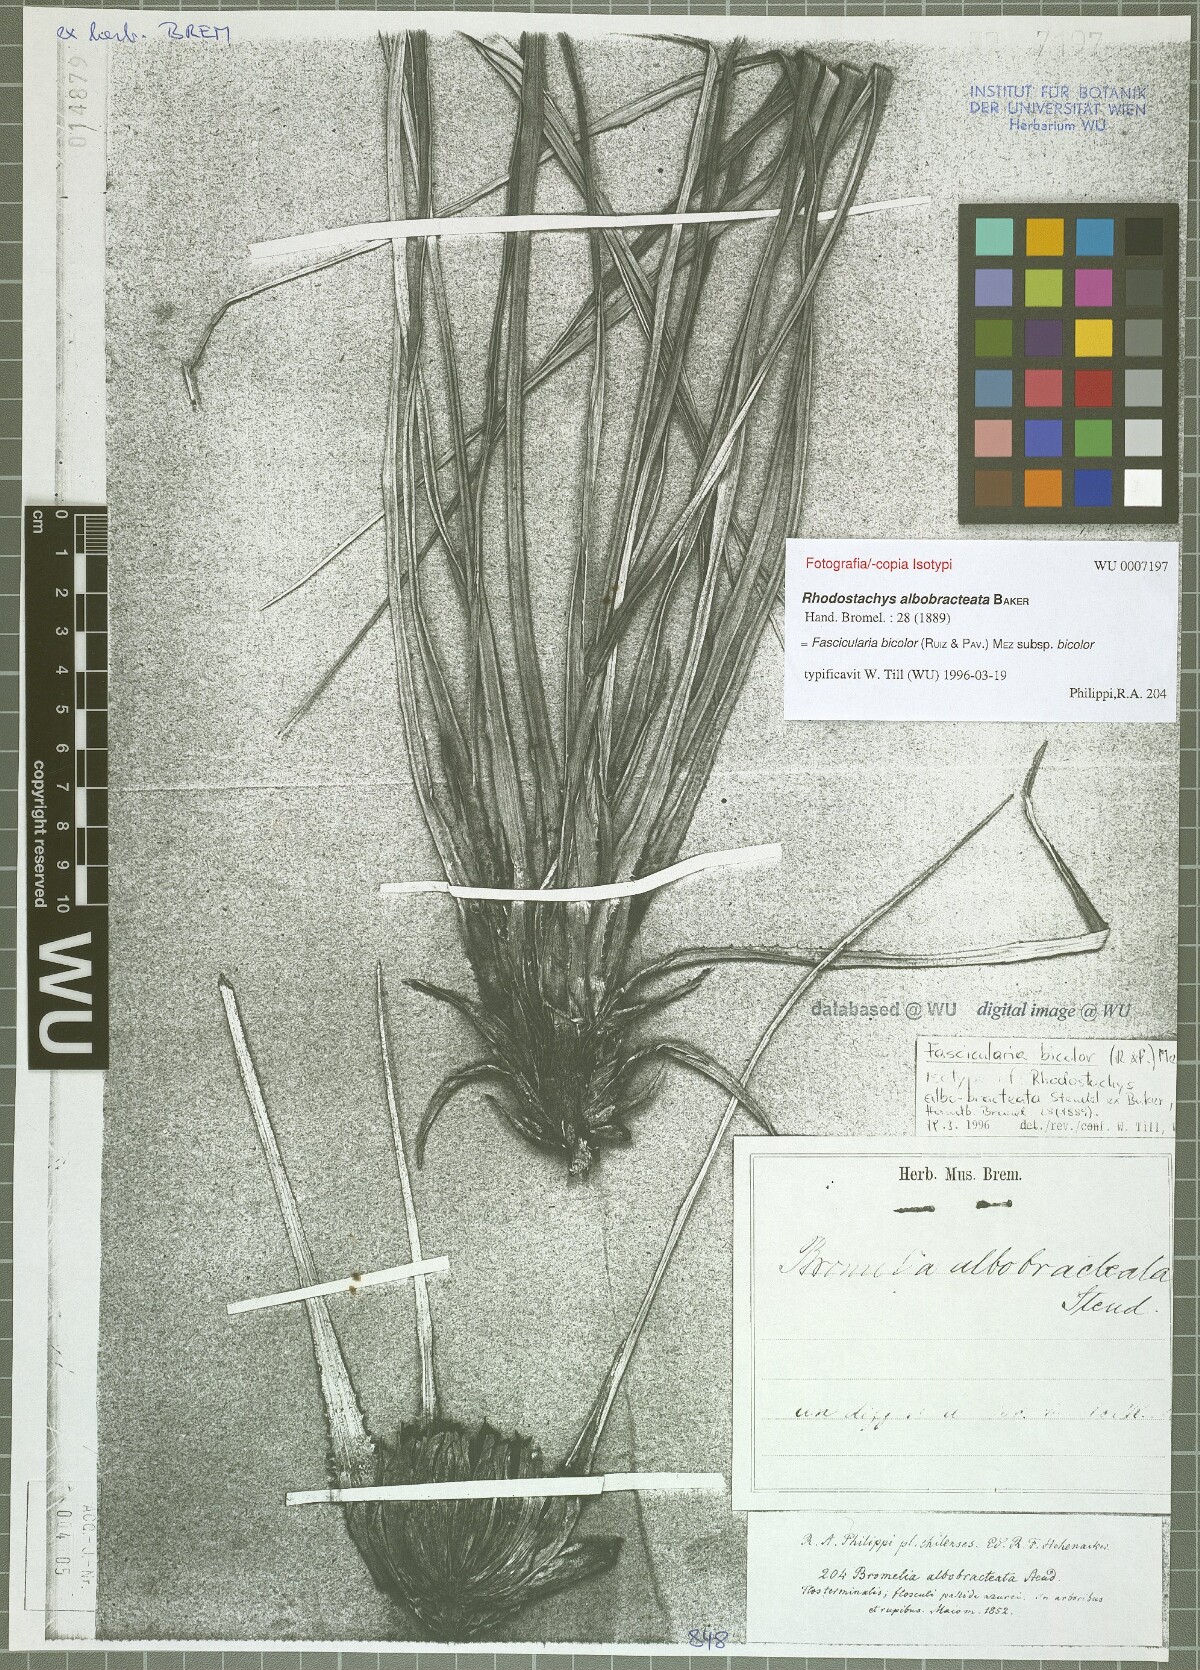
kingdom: Plantae
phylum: Tracheophyta
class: Liliopsida
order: Poales
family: Bromeliaceae
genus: Fascicularia
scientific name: Fascicularia bicolor
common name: Rhodostachys
